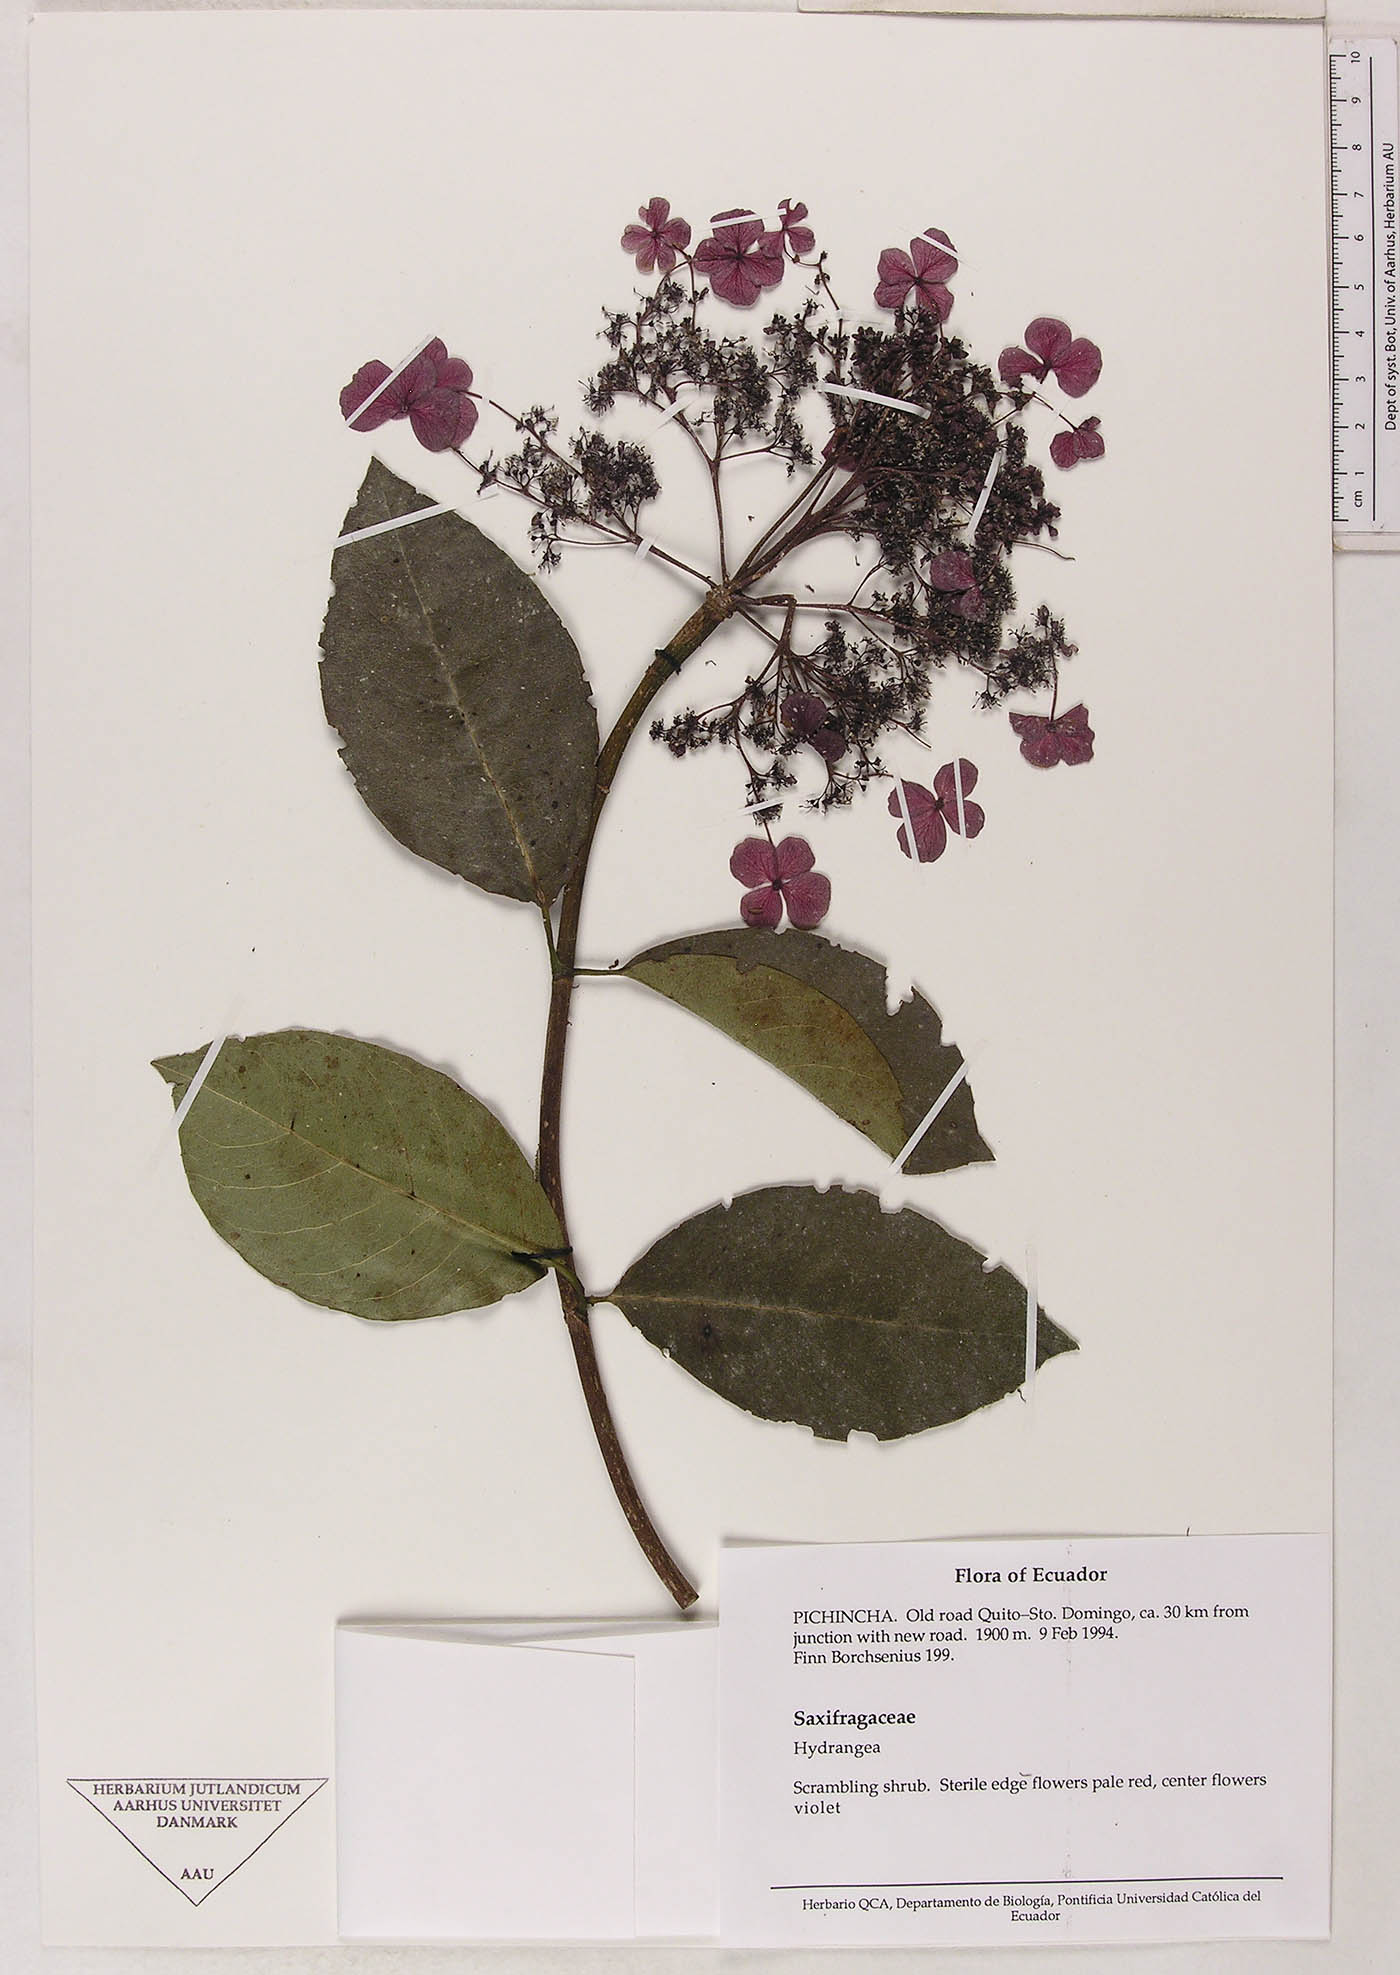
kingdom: Plantae
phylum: Tracheophyta
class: Magnoliopsida
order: Cornales
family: Hydrangeaceae
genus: Hydrangea
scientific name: Hydrangea
